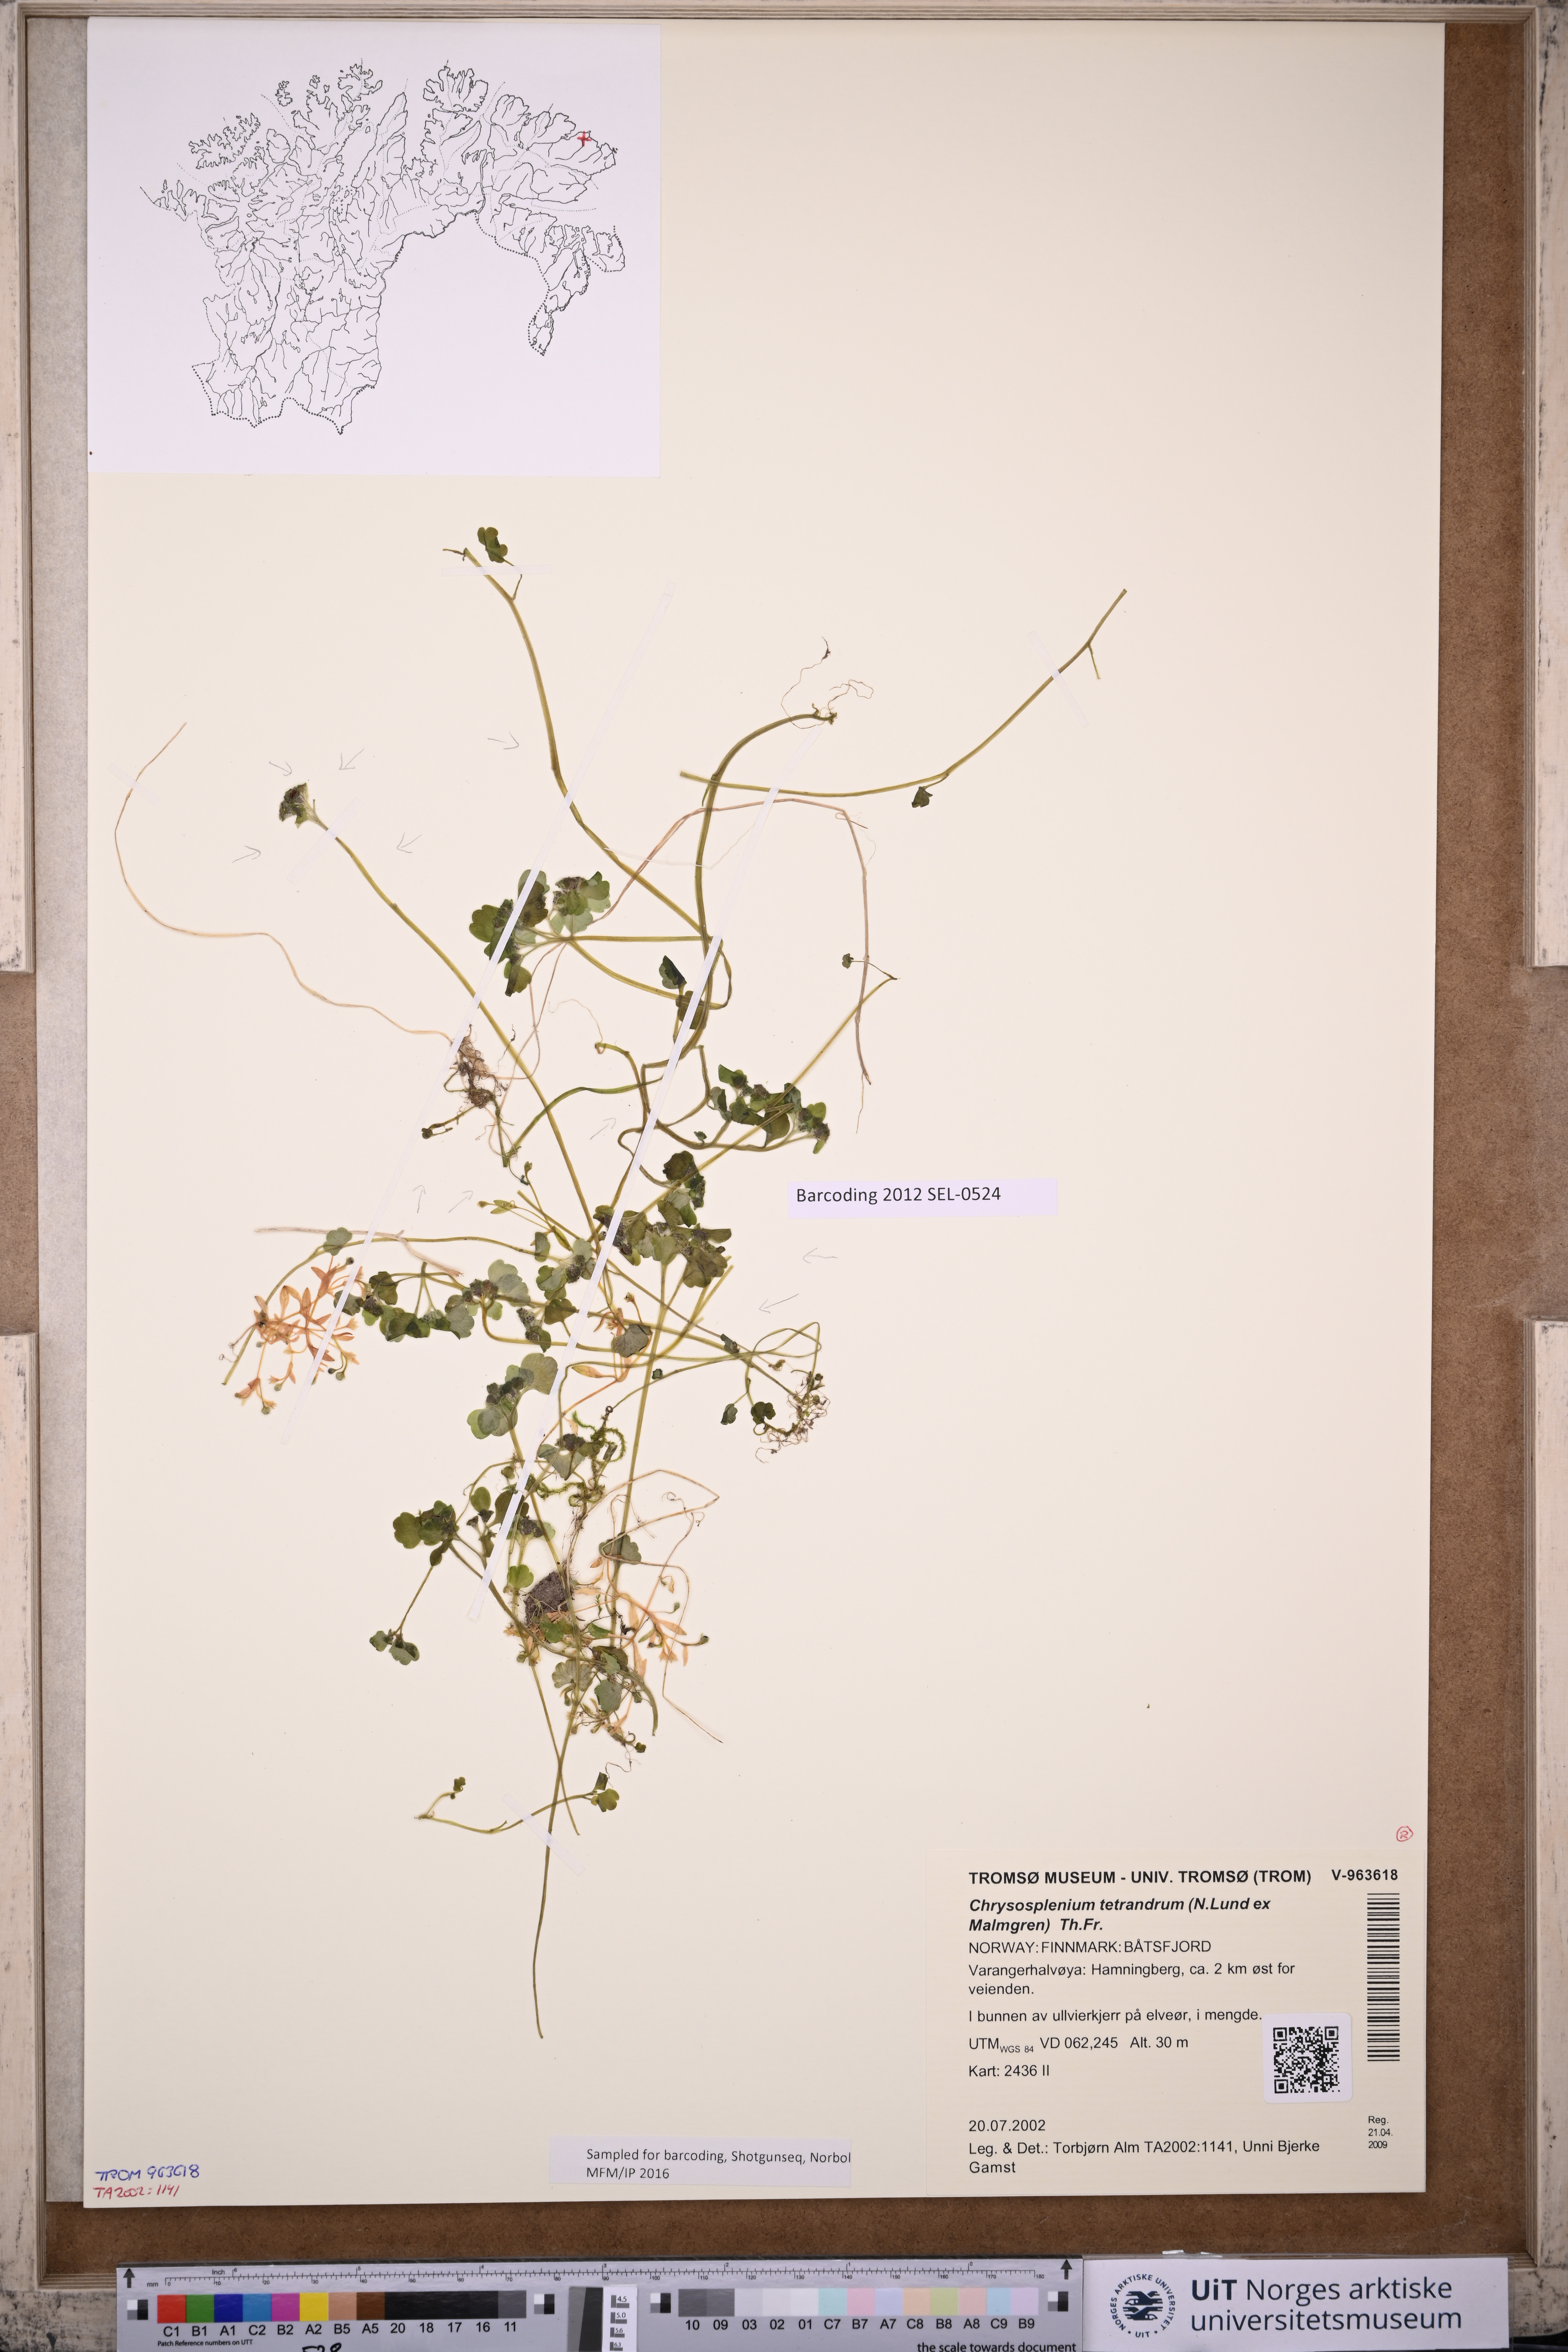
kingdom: Plantae
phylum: Tracheophyta
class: Magnoliopsida
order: Saxifragales
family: Saxifragaceae
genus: Chrysosplenium
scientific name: Chrysosplenium tetrandrum
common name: Green saxifrage
